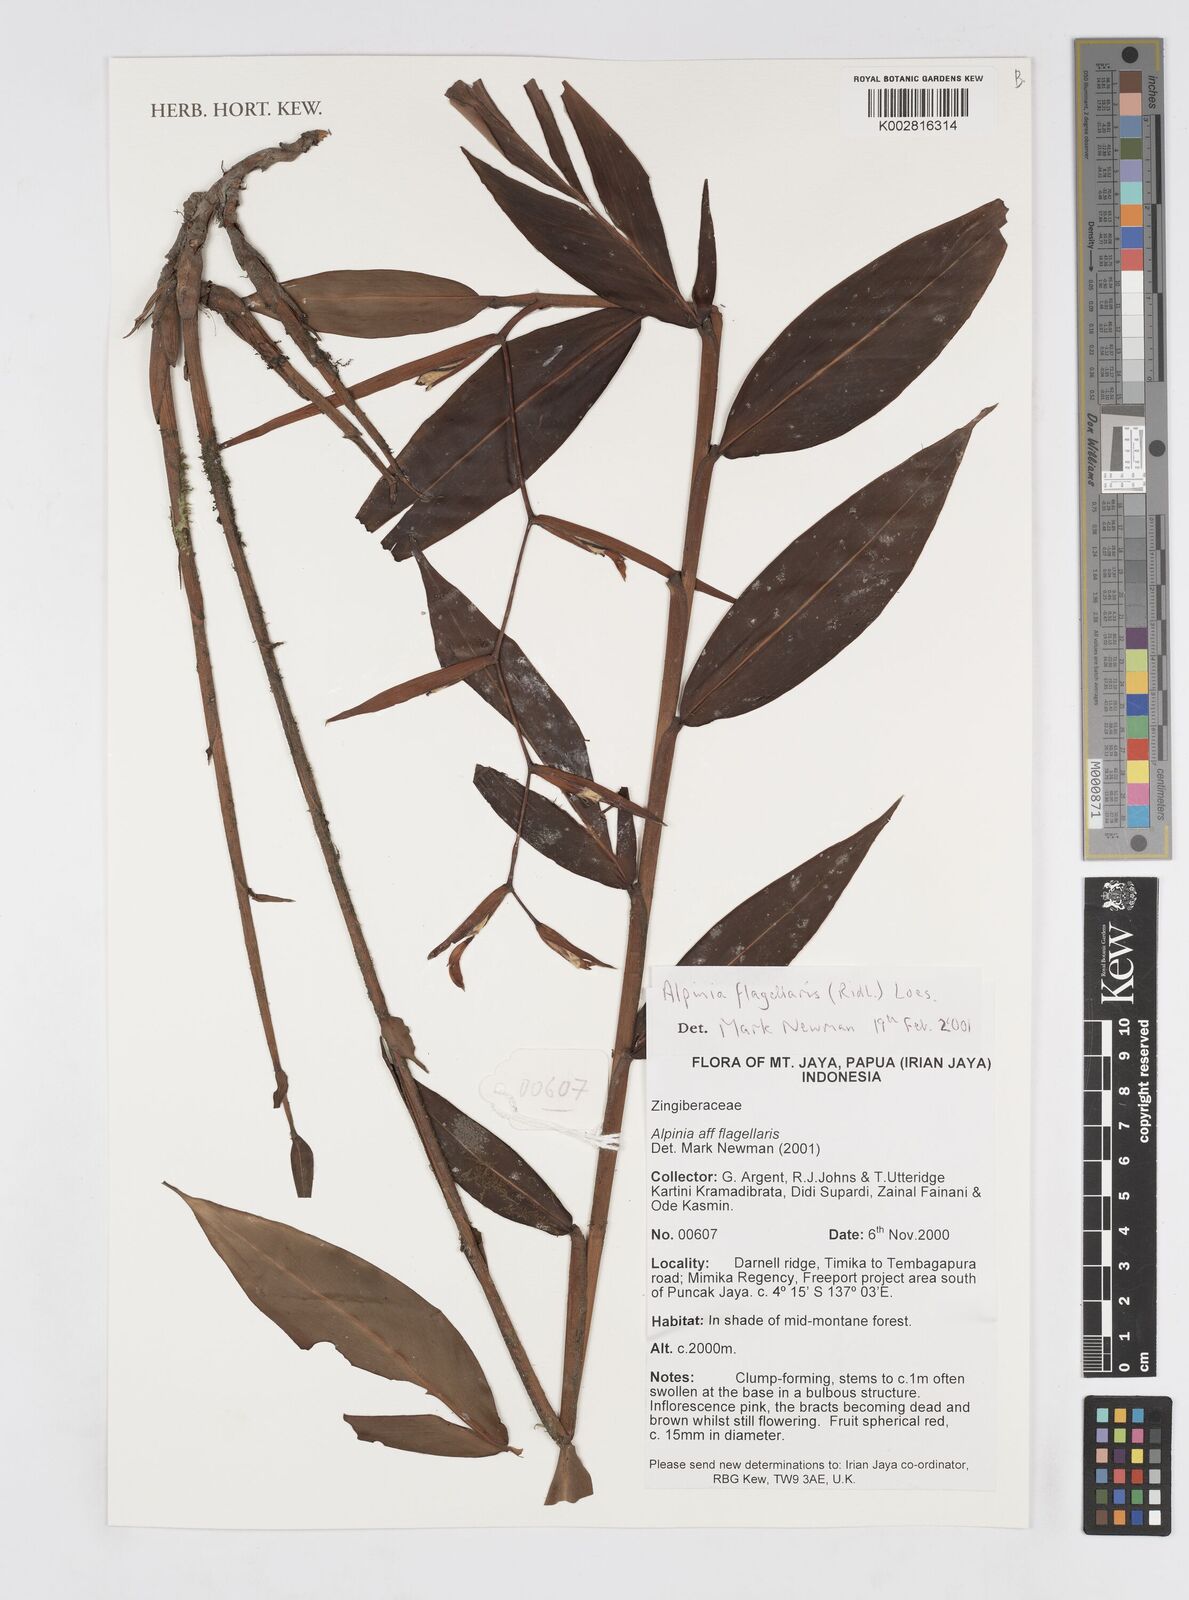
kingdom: Plantae
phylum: Tracheophyta
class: Liliopsida
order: Zingiberales
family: Zingiberaceae
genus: Alpinia
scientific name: Alpinia flagellaris
